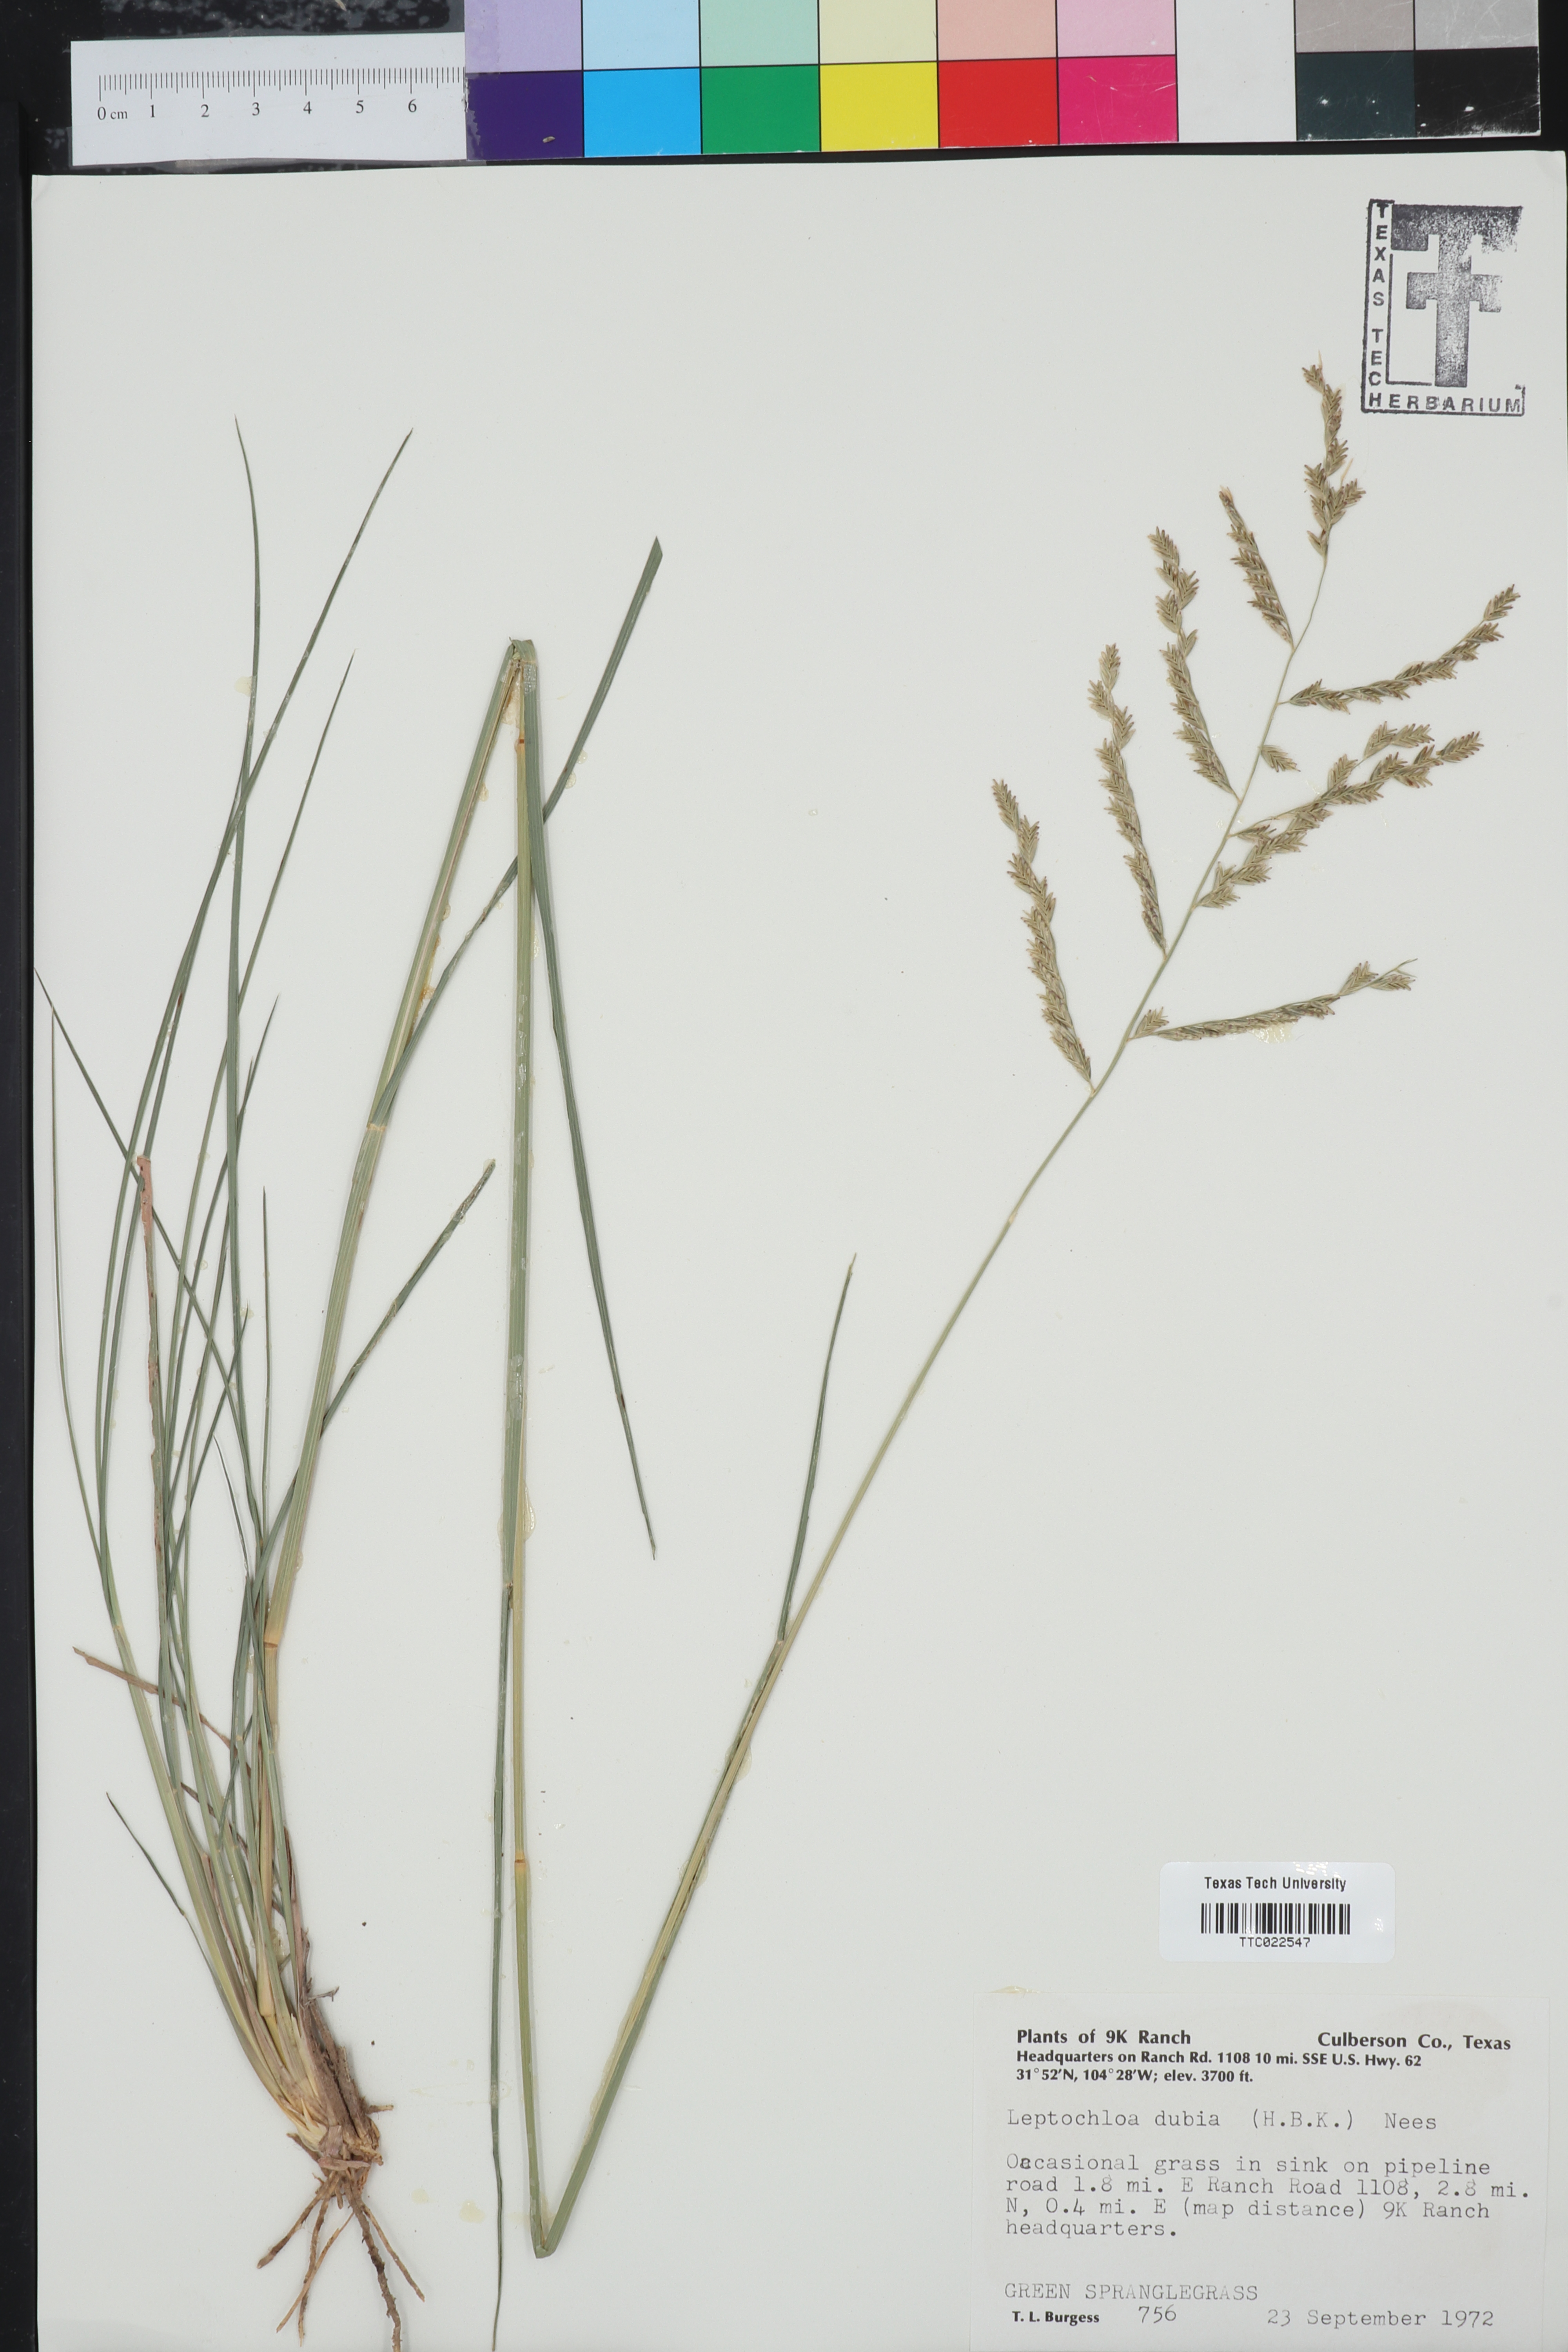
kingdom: Plantae
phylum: Tracheophyta
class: Liliopsida
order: Poales
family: Poaceae
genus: Disakisperma
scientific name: Disakisperma dubium
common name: Green sprangletop
